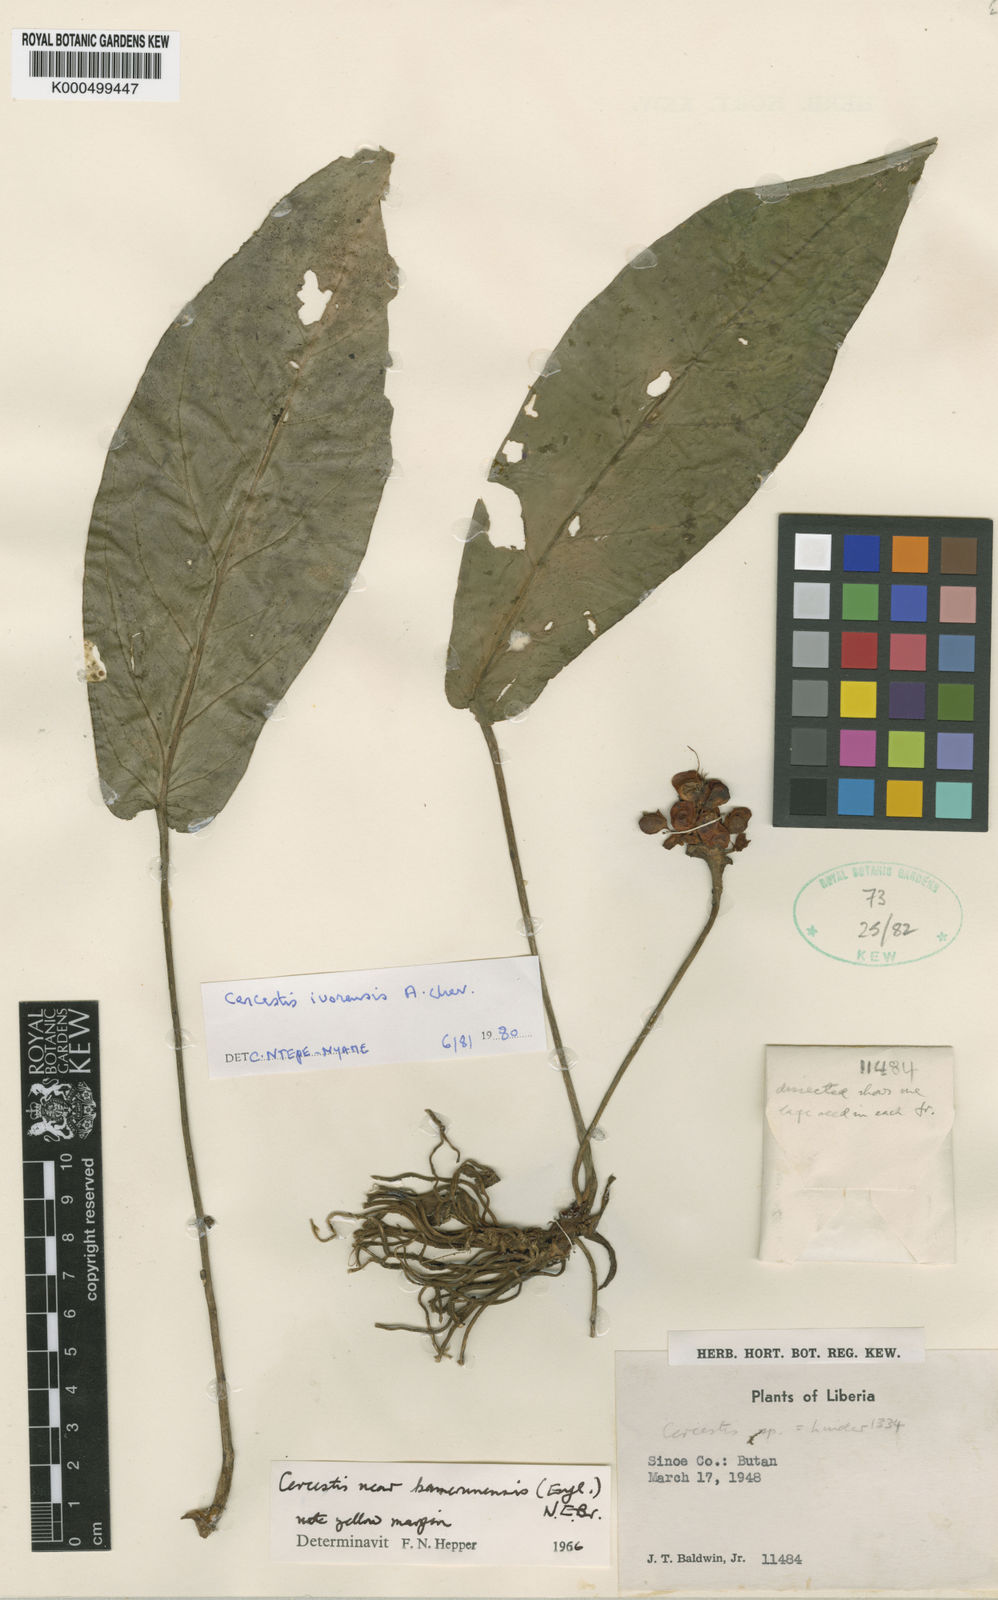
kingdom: Plantae
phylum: Tracheophyta
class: Liliopsida
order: Alismatales
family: Araceae
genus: Cercestis
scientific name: Cercestis ivorensis
